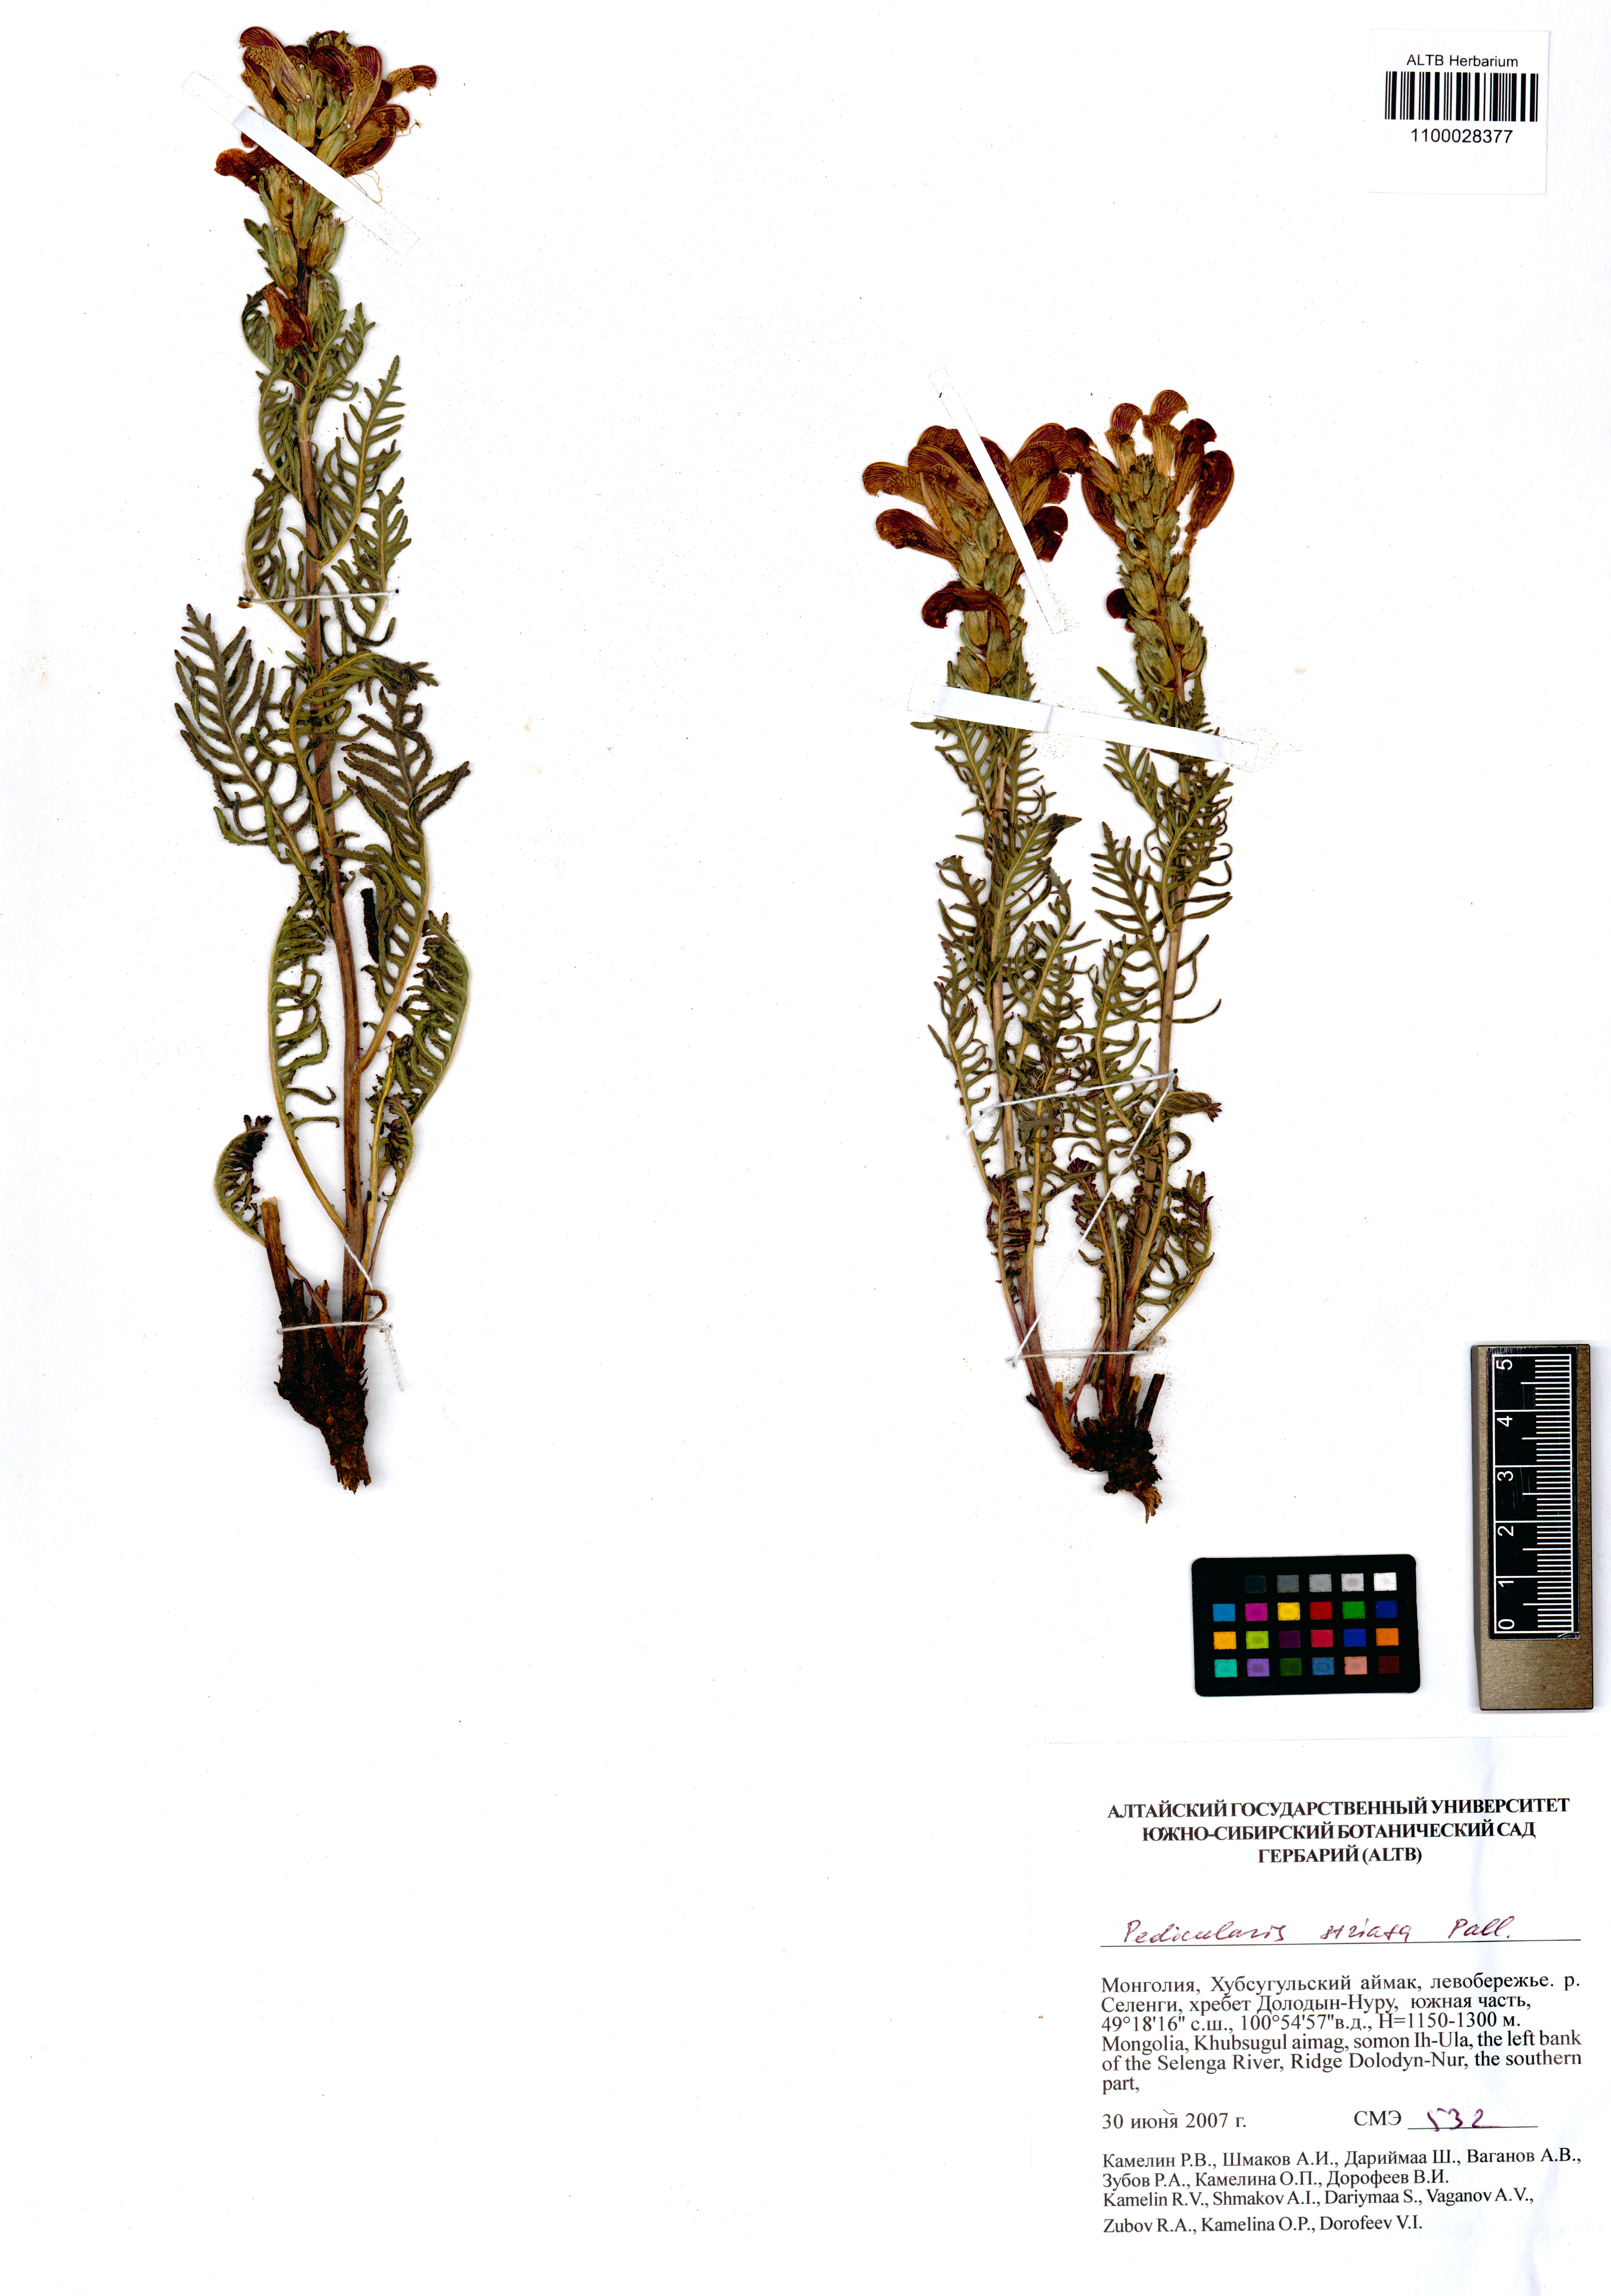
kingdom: Plantae
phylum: Tracheophyta
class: Magnoliopsida
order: Lamiales
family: Orobanchaceae
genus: Pedicularis
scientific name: Pedicularis striata
